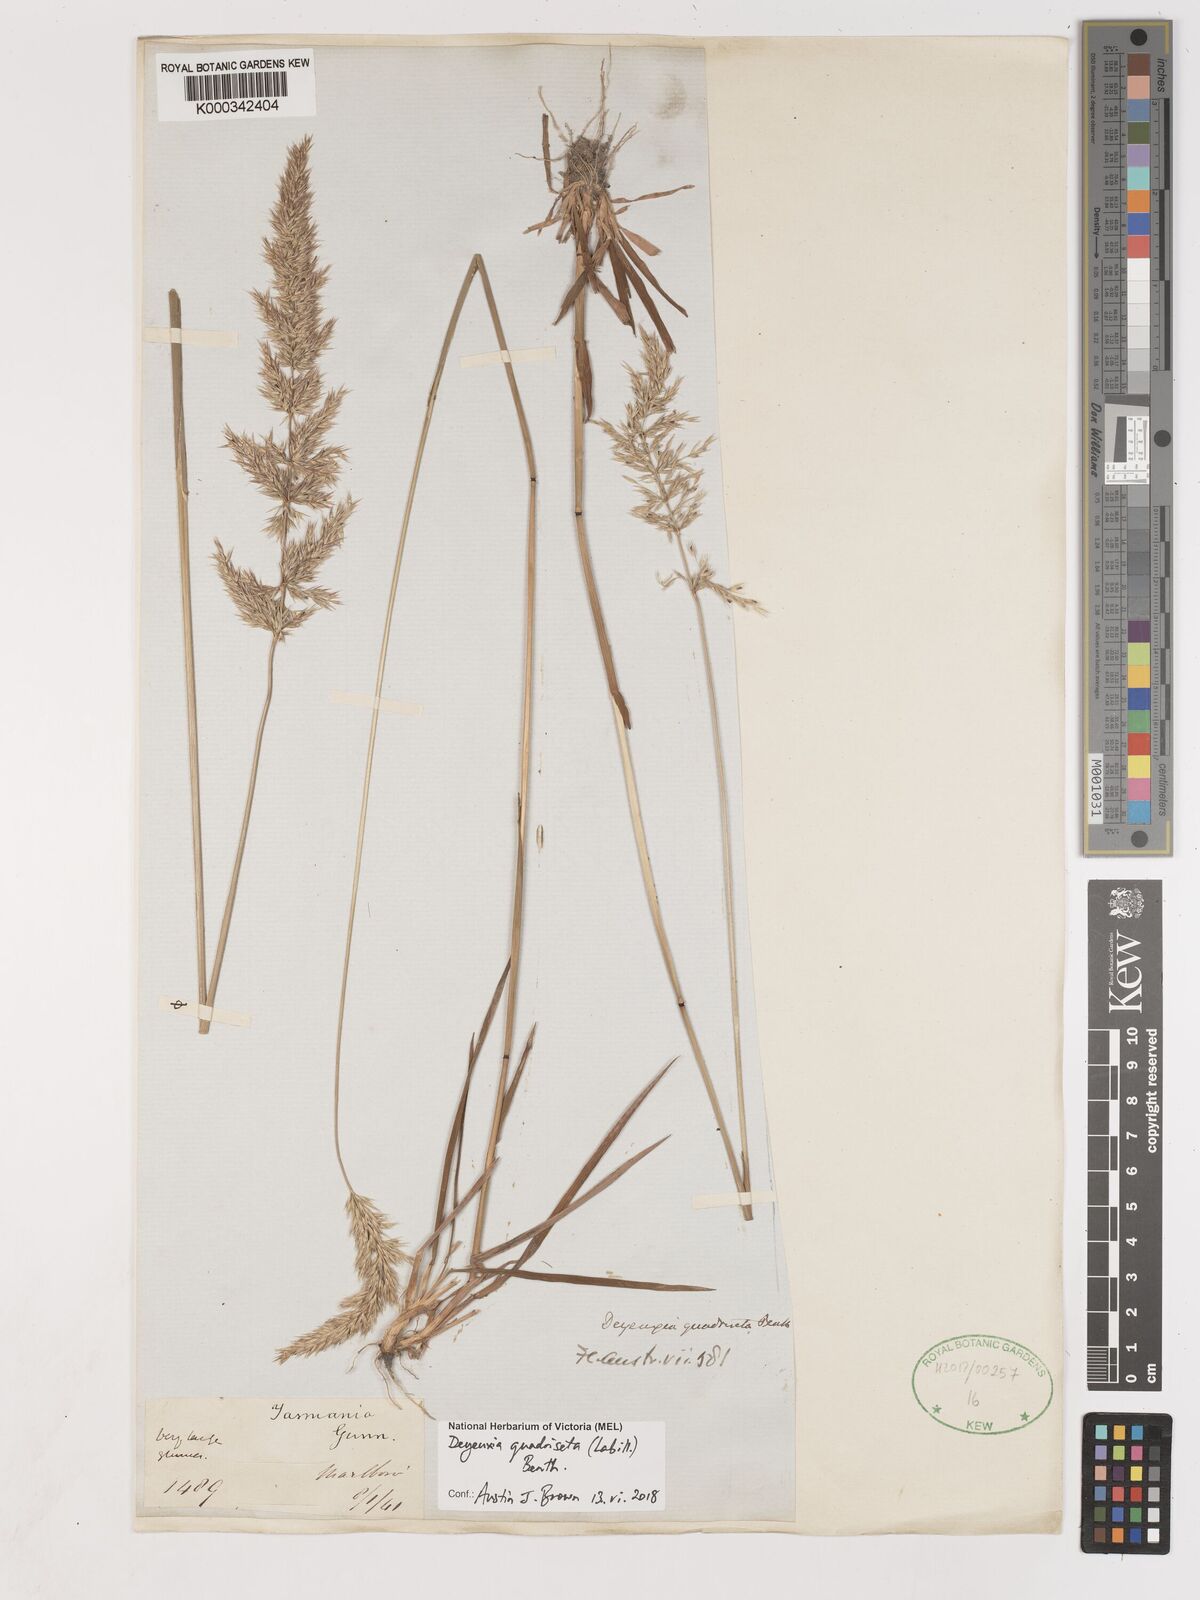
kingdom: Plantae
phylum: Tracheophyta
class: Liliopsida
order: Poales
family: Poaceae
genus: Calamagrostis
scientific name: Calamagrostis quadriseta
